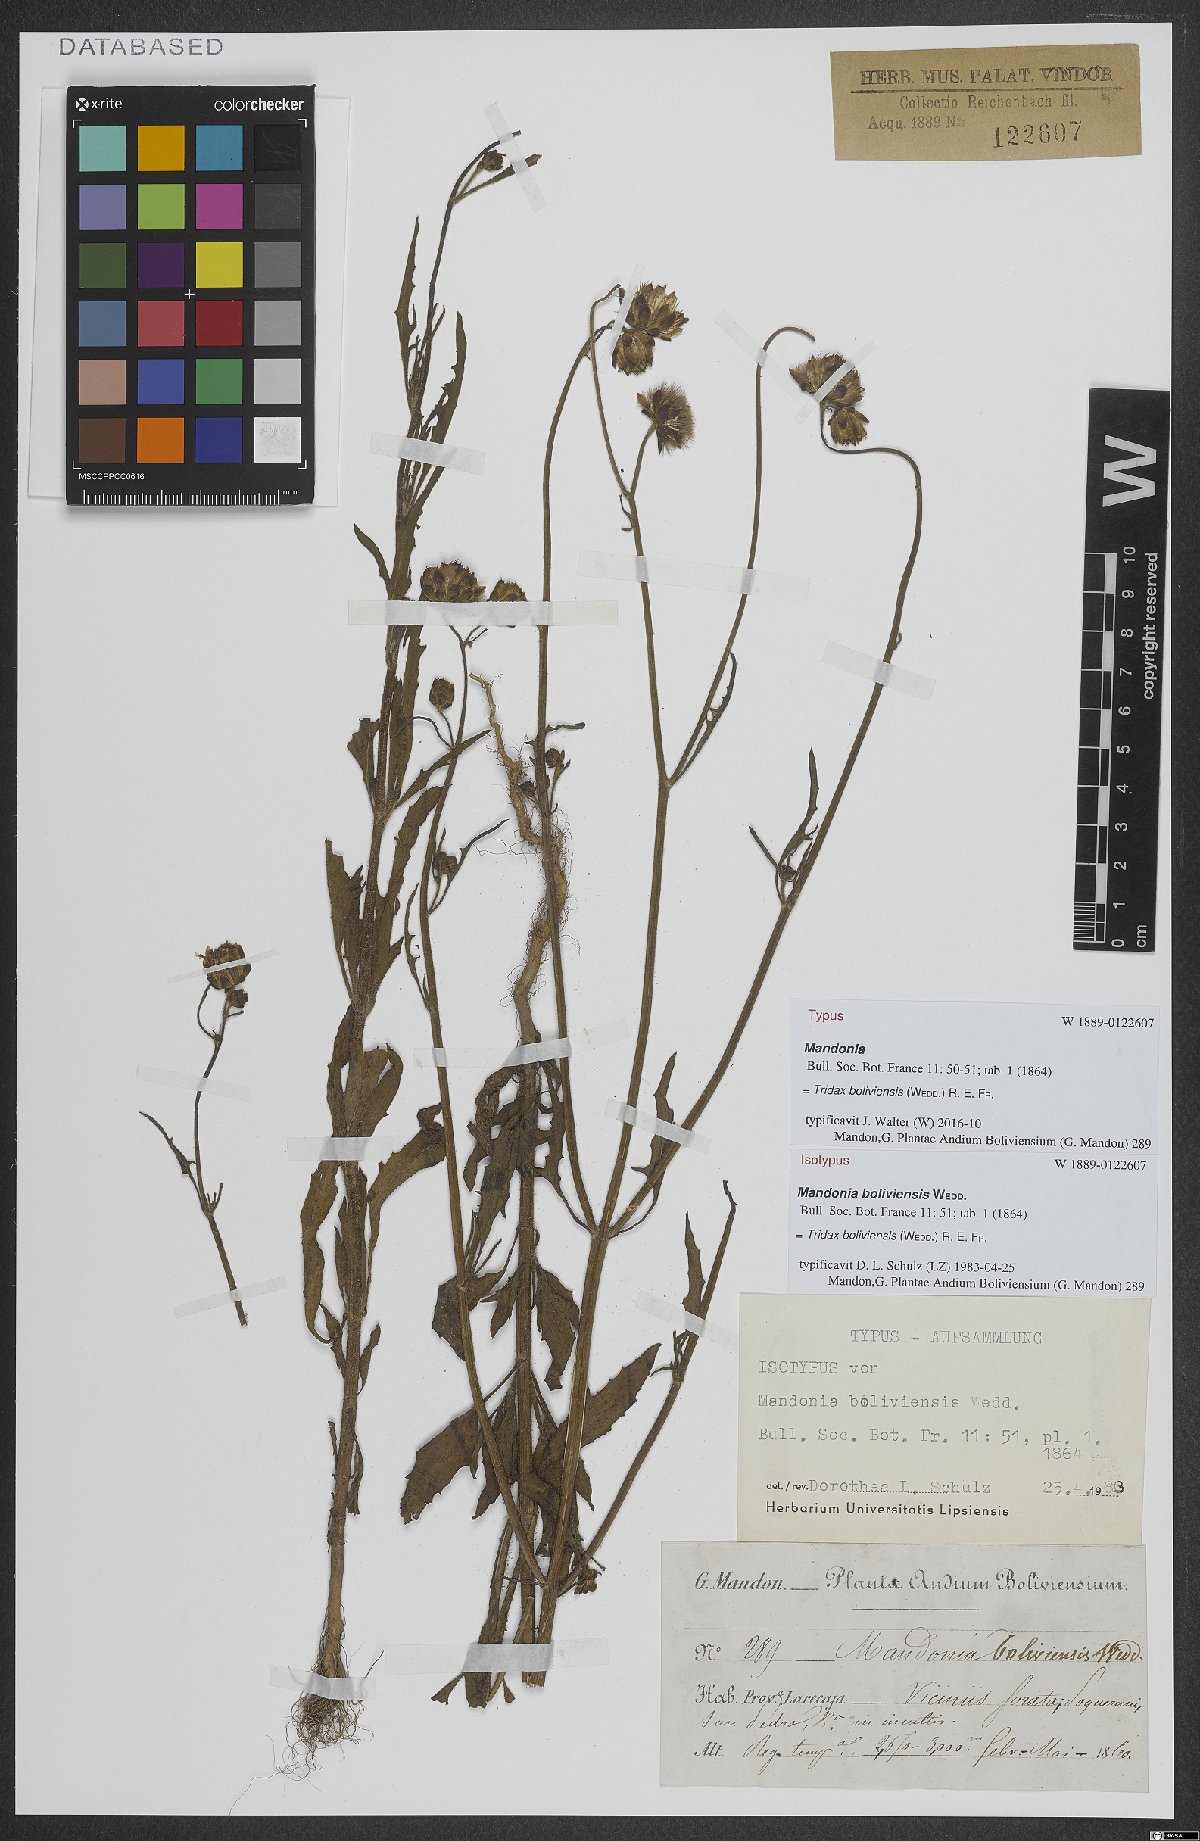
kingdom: Plantae
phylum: Tracheophyta
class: Magnoliopsida
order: Asterales
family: Asteraceae
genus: Tridax
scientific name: Tridax boliviensis
